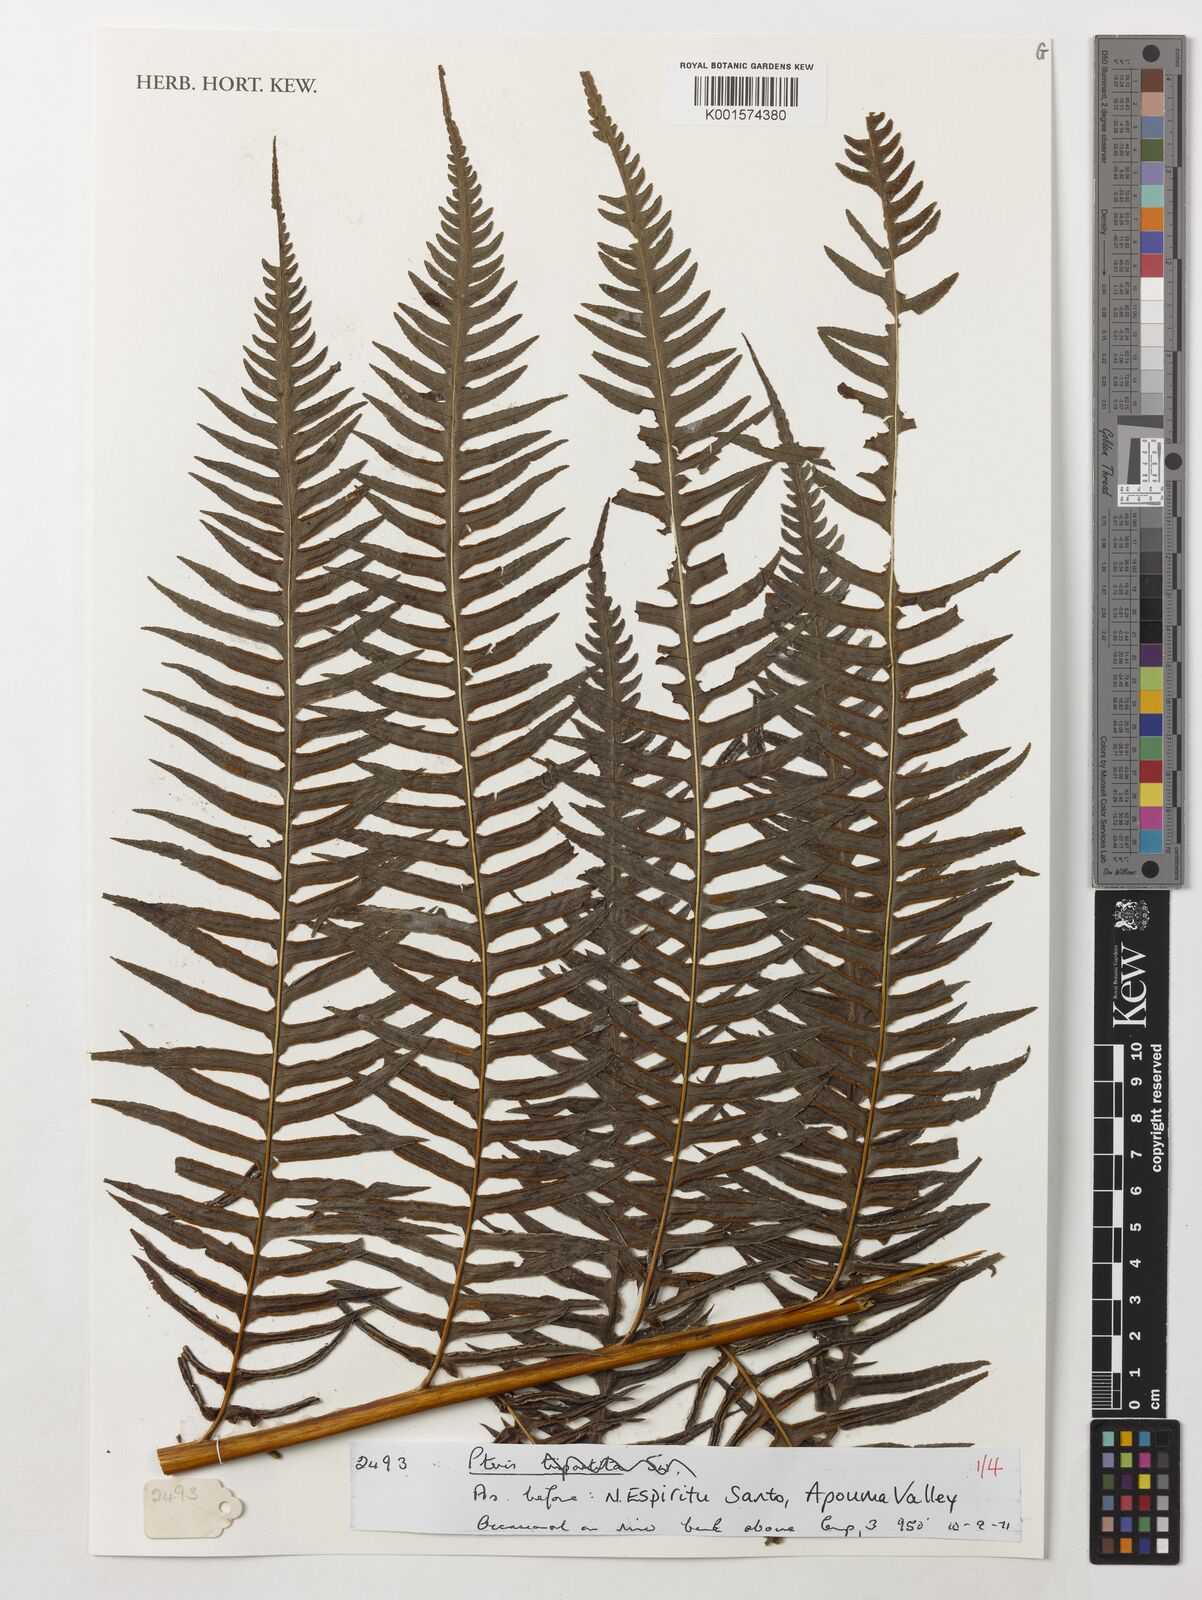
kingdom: Plantae
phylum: Tracheophyta
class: Polypodiopsida
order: Polypodiales
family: Pteridaceae
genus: Pteris
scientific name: Pteris
